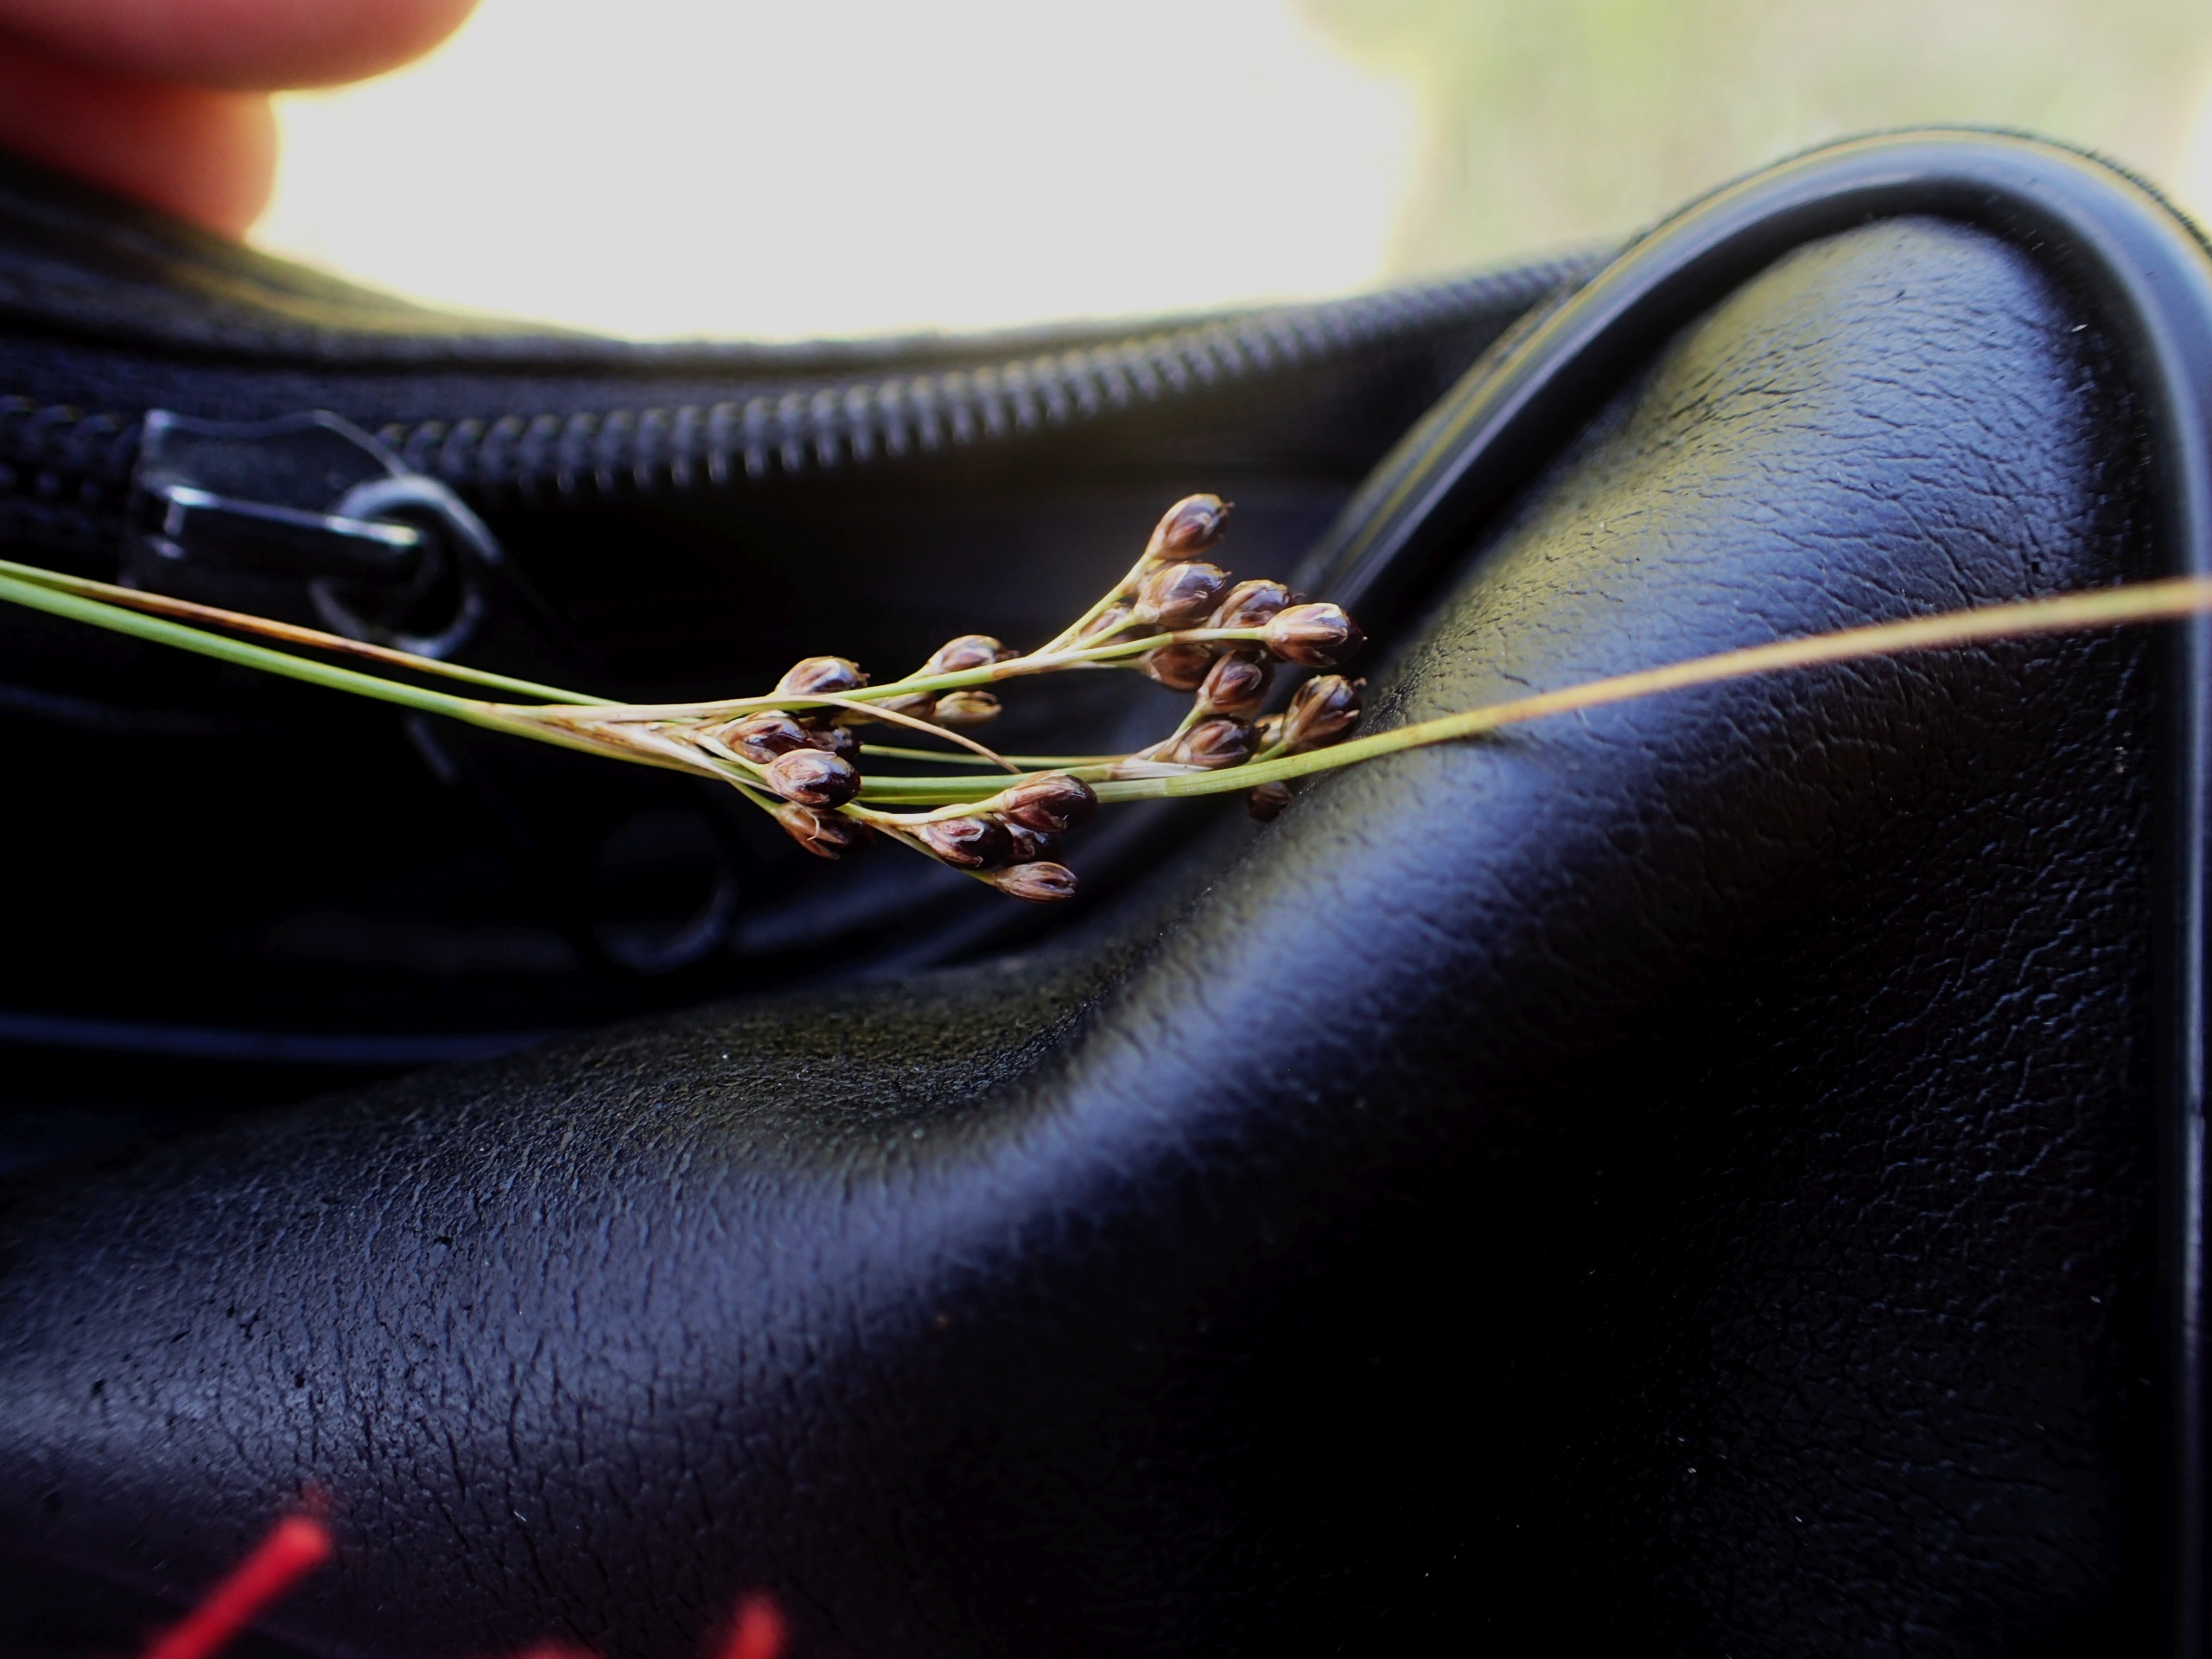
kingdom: Plantae
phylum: Tracheophyta
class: Liliopsida
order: Poales
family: Juncaceae
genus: Juncus
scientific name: Juncus compressus
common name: Fladstrået siv
